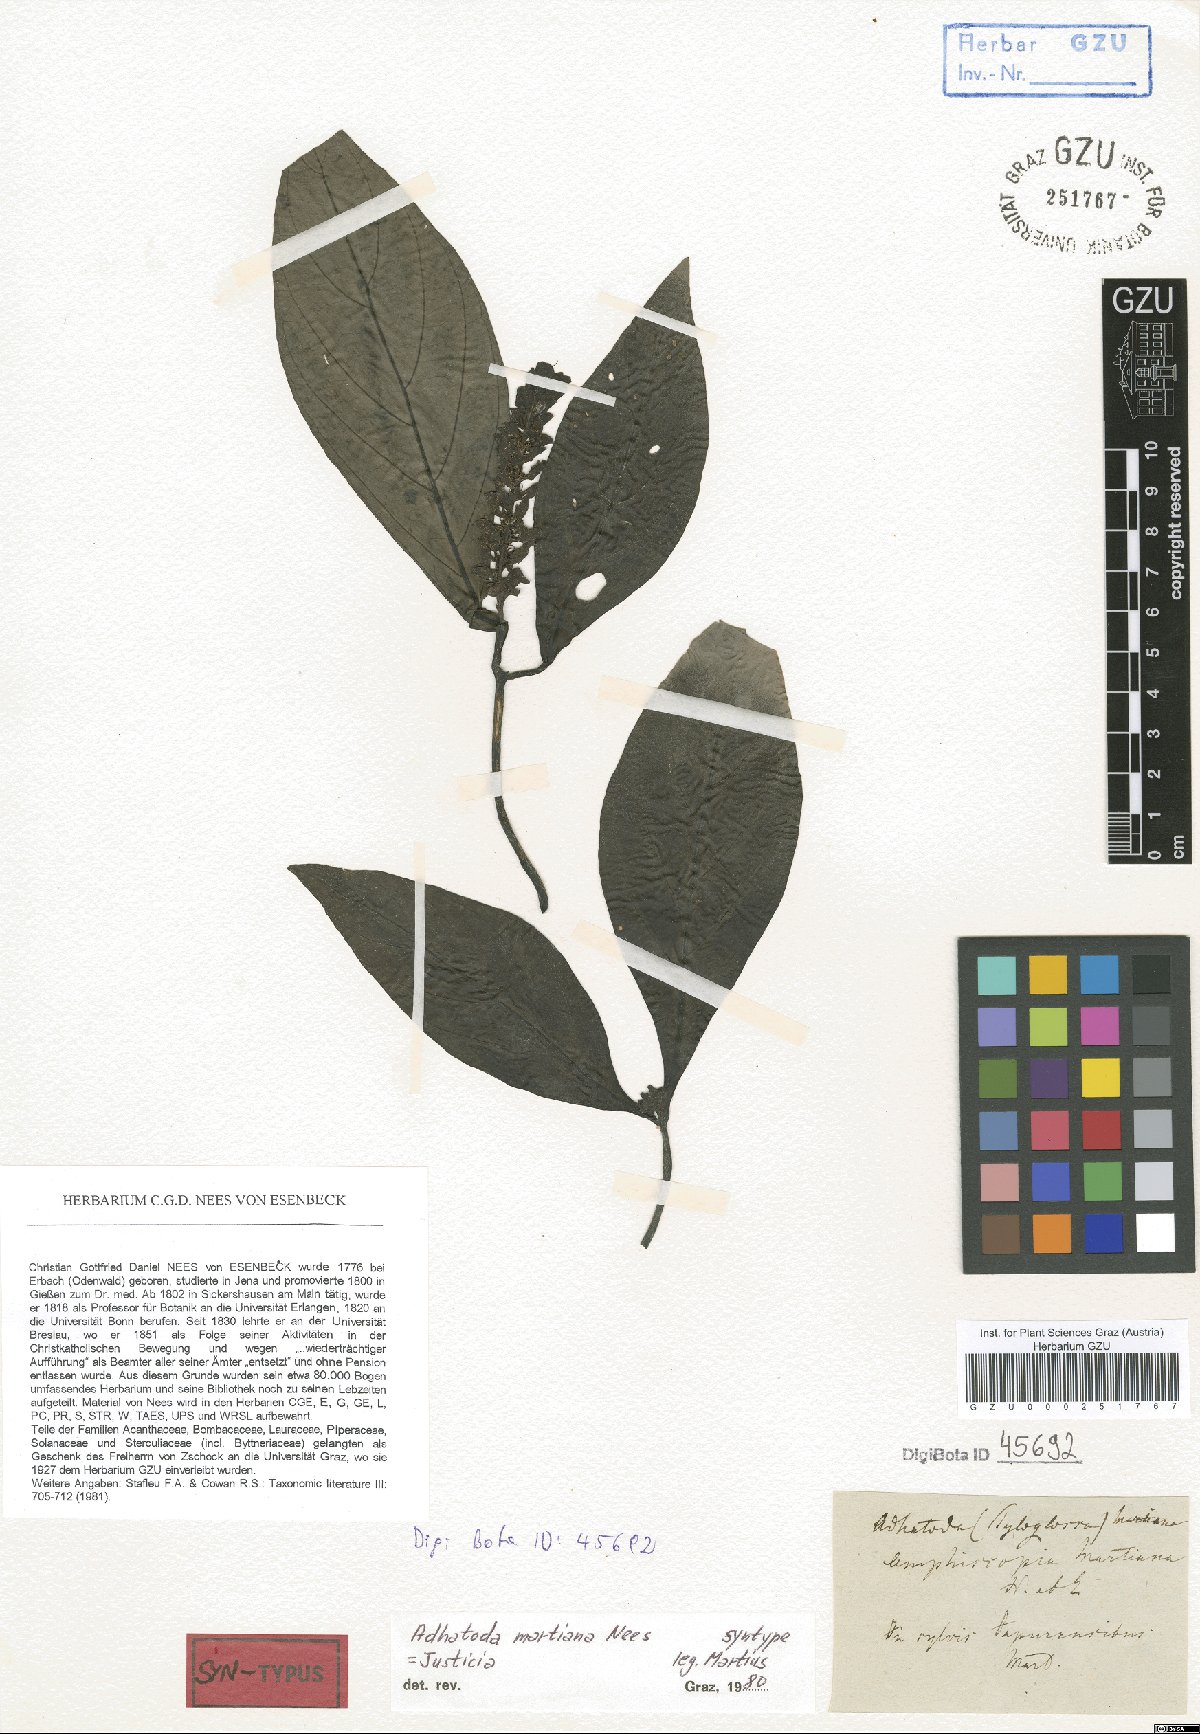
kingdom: Plantae
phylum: Tracheophyta
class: Magnoliopsida
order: Lamiales
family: Acanthaceae
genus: Justicia
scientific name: Justicia martiana
